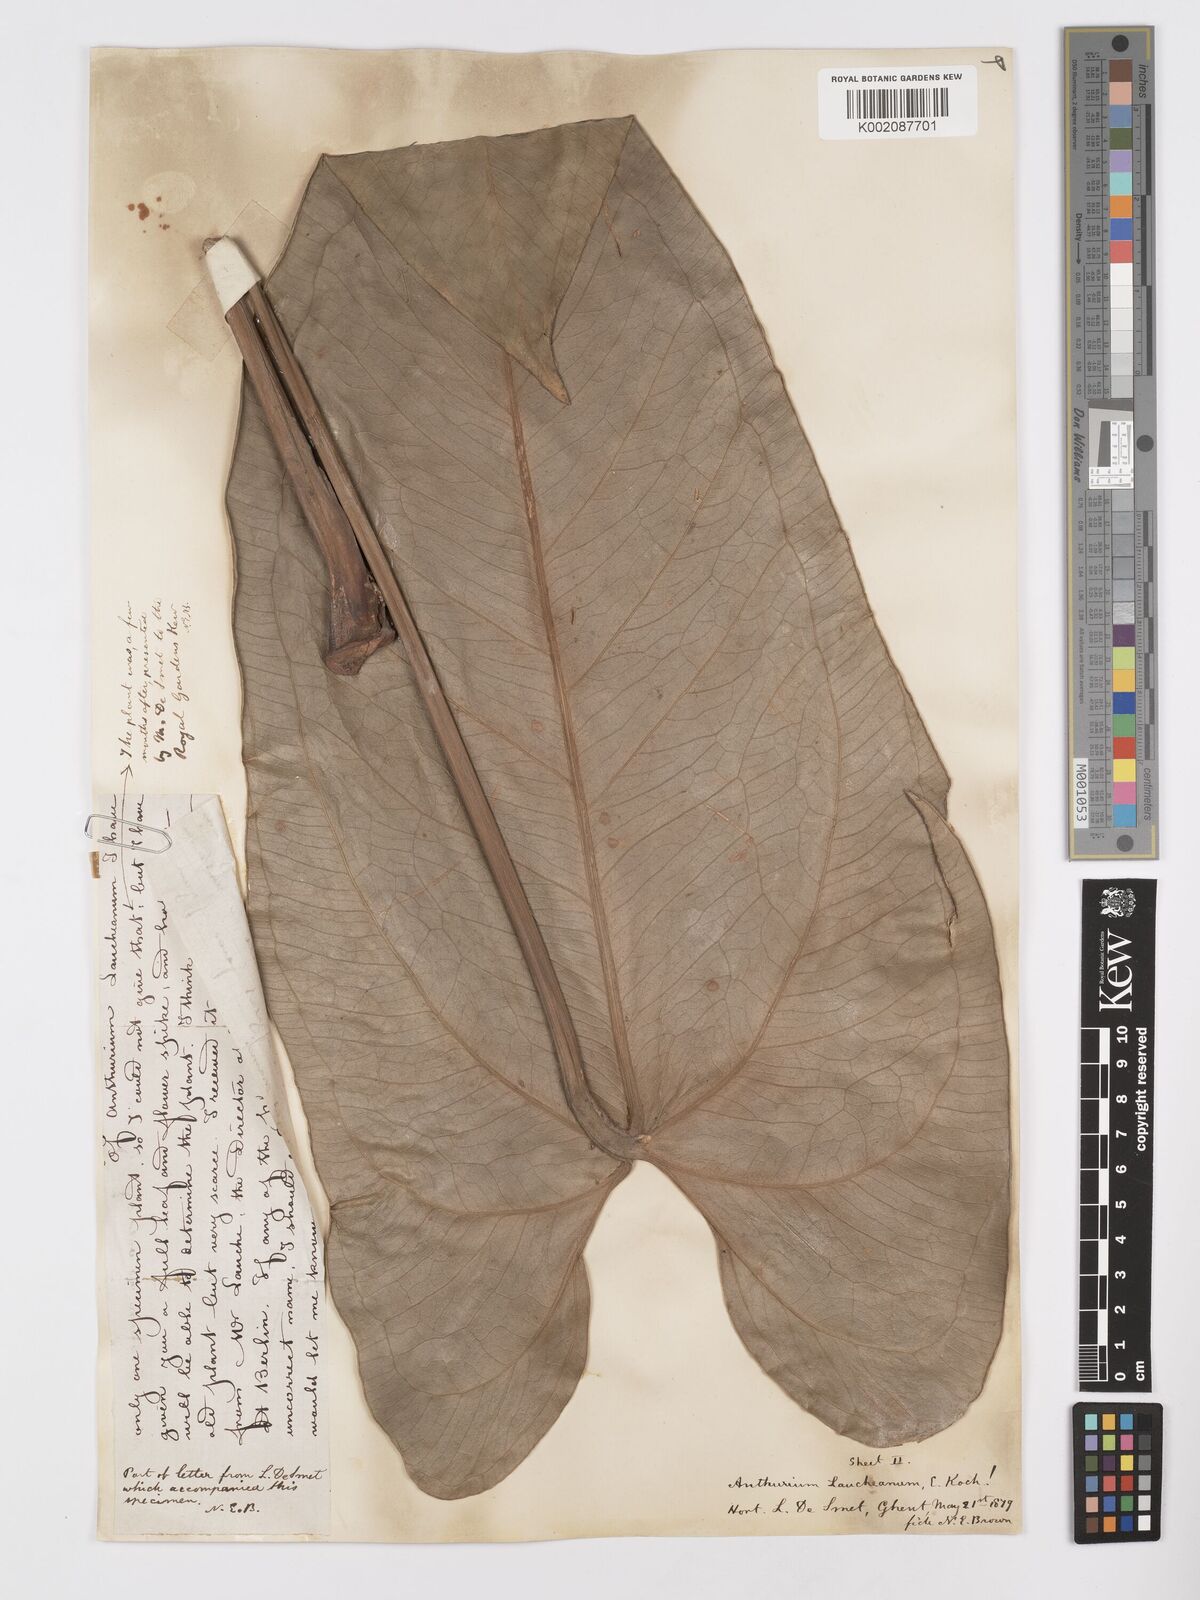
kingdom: Plantae
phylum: Tracheophyta
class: Liliopsida
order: Alismatales
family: Araceae
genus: Anthurium
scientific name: Anthurium augustinum
